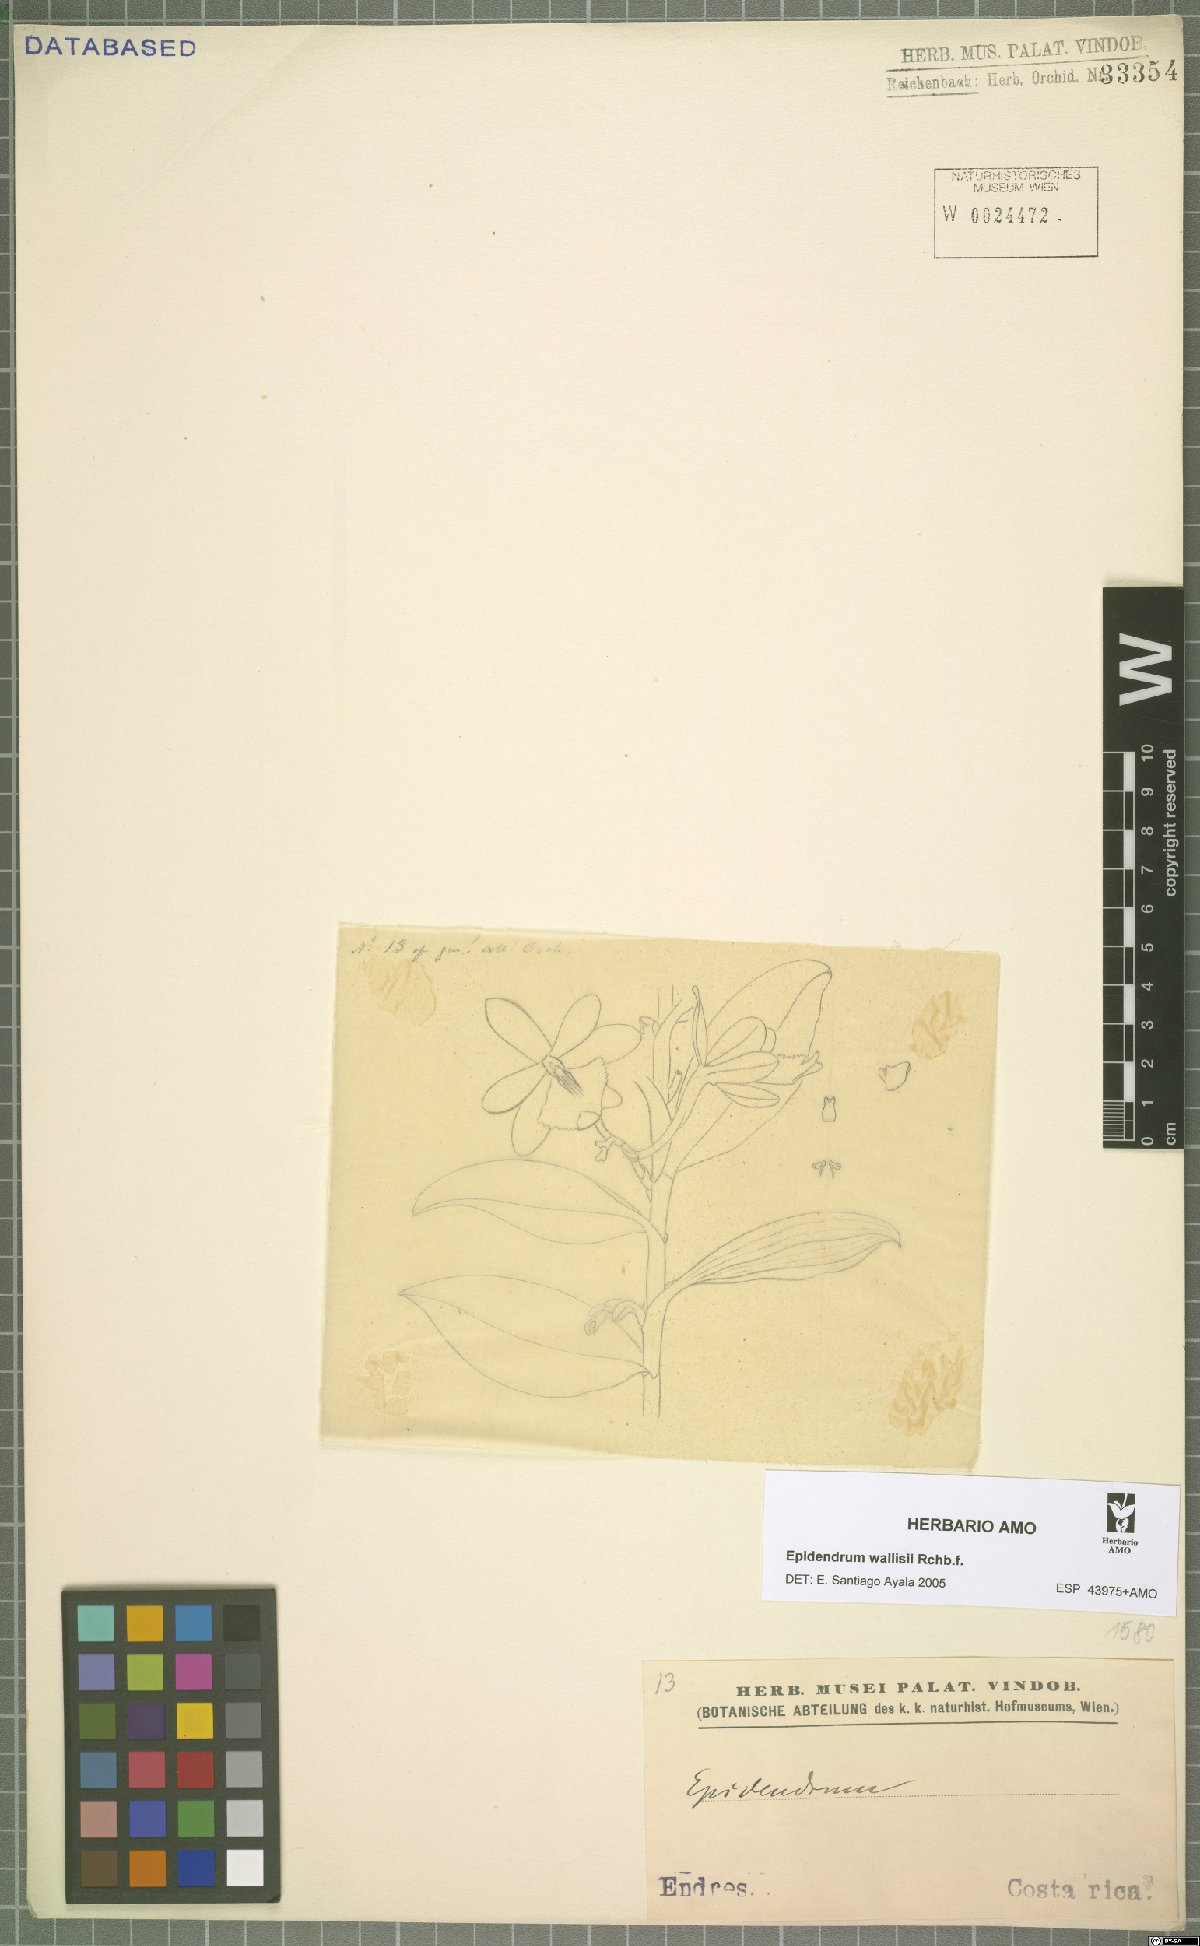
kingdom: Plantae
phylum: Tracheophyta
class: Liliopsida
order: Asparagales
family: Orchidaceae
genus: Epidendrum
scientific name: Epidendrum wallisii
